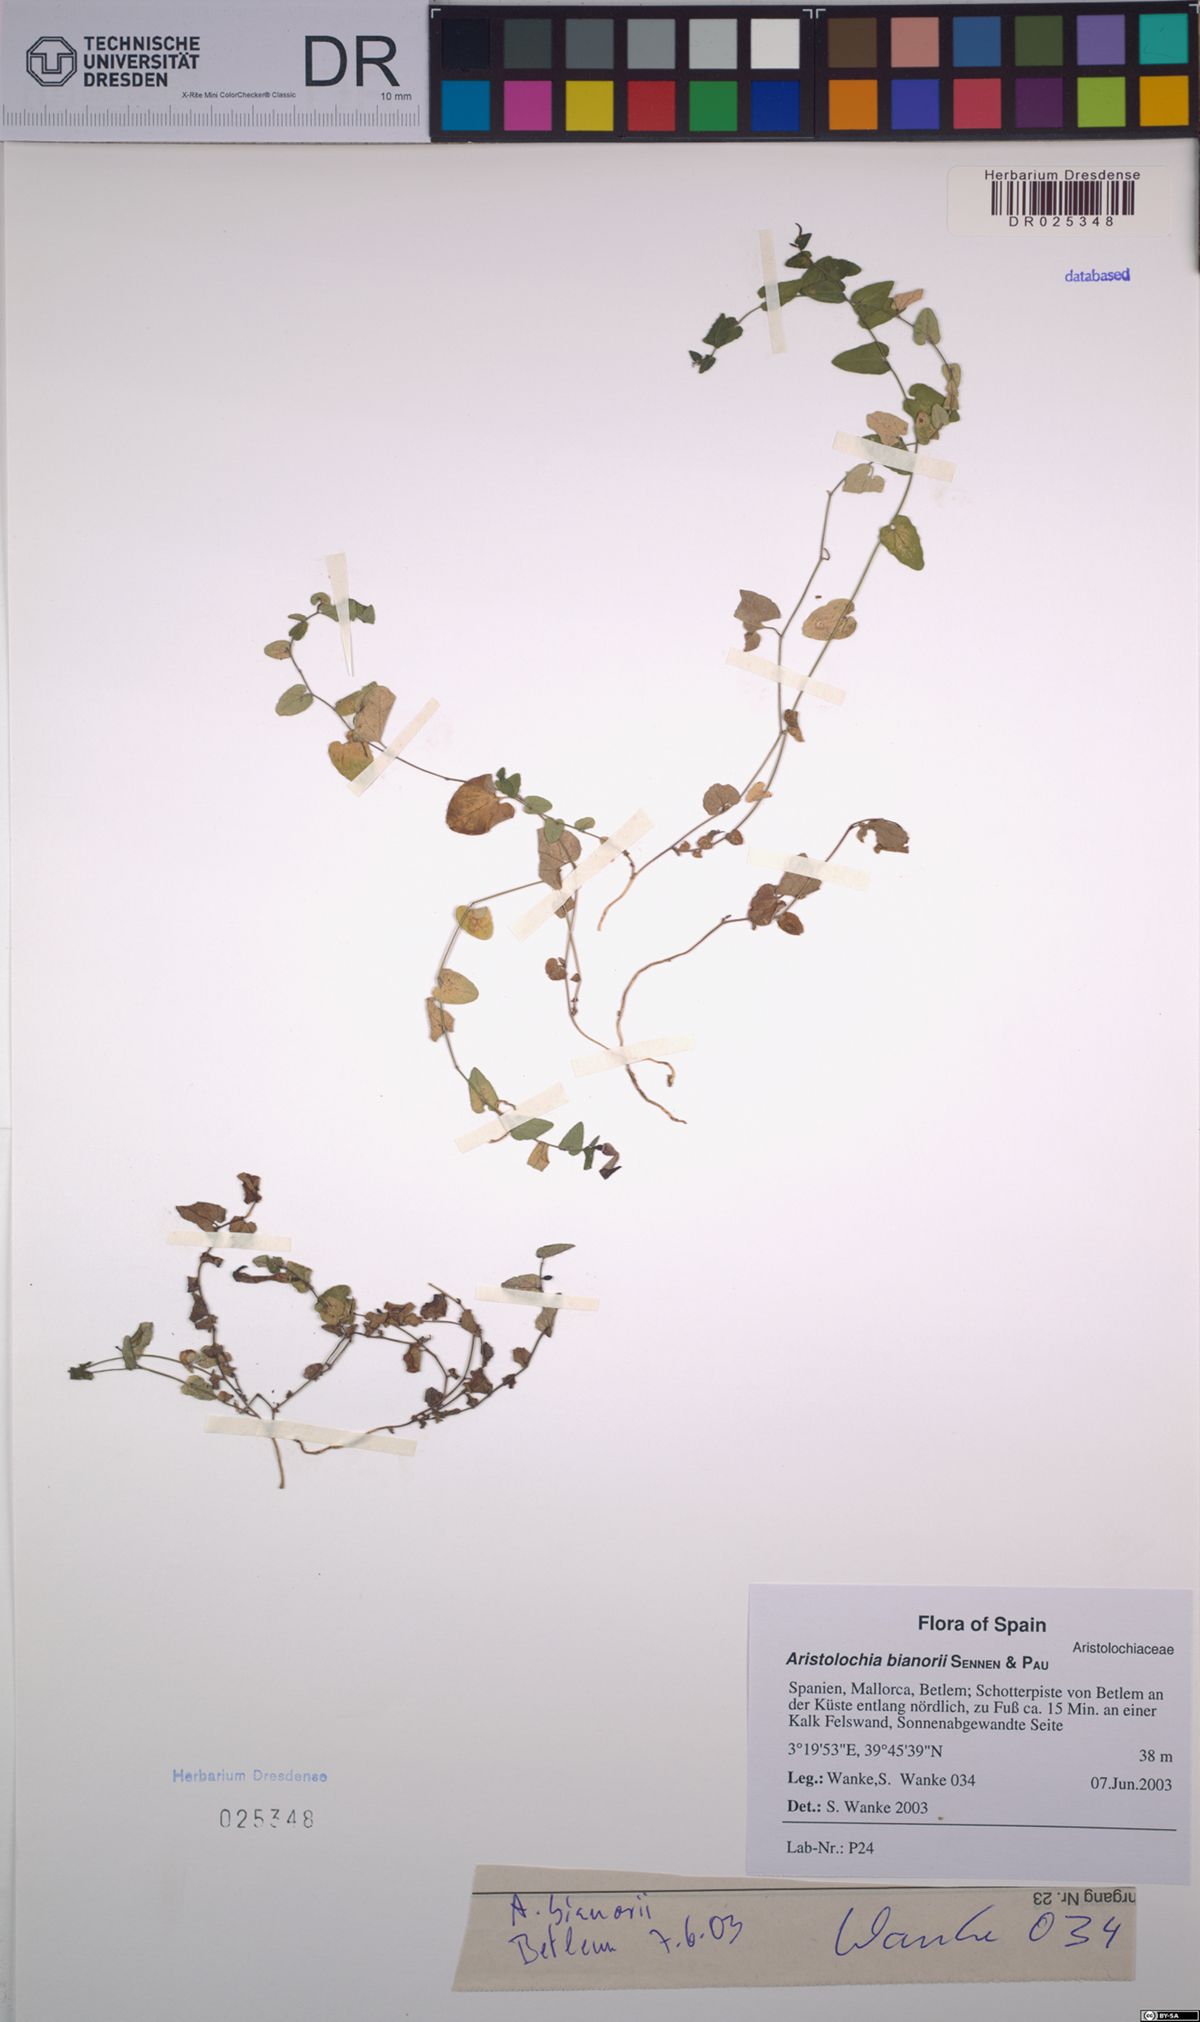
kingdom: Plantae
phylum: Tracheophyta
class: Magnoliopsida
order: Piperales
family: Aristolochiaceae
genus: Aristolochia
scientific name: Aristolochia bianorii
